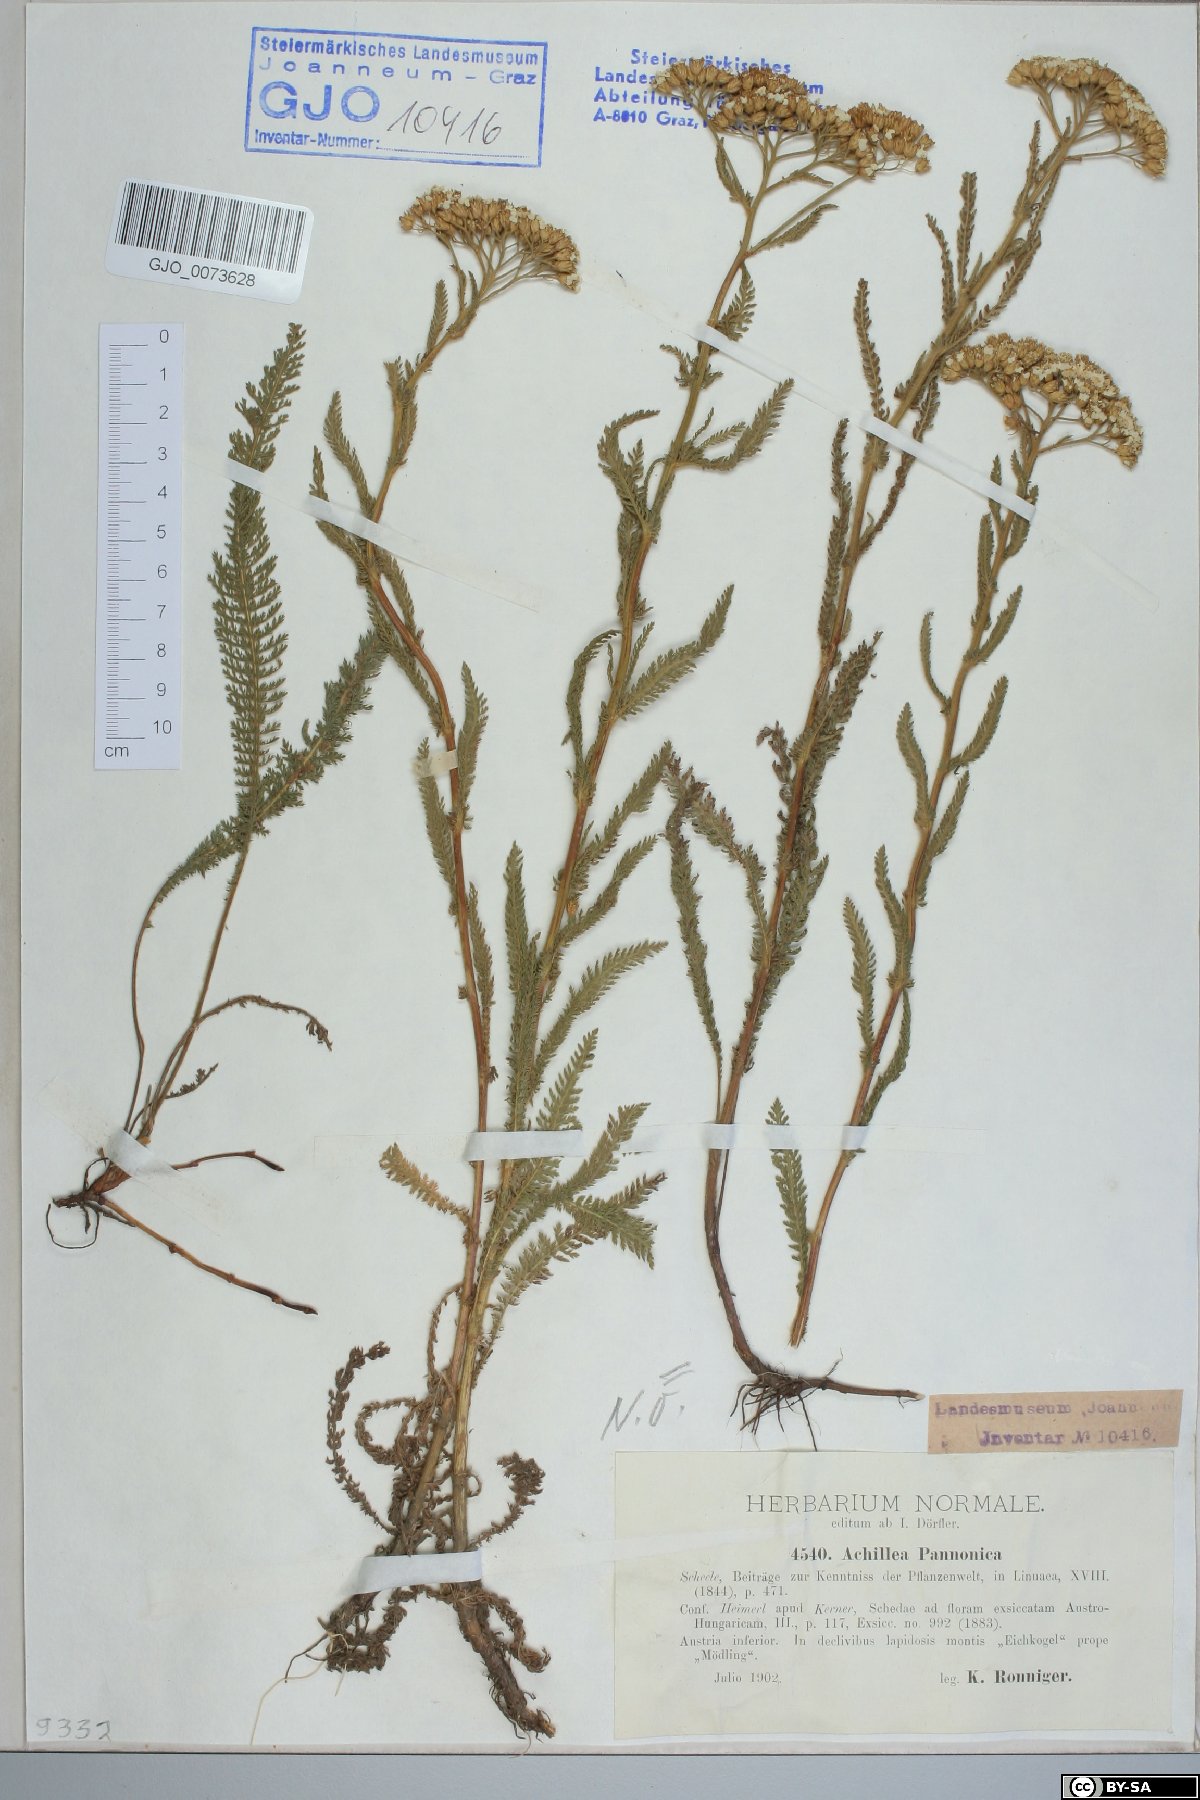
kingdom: Plantae
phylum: Tracheophyta
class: Magnoliopsida
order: Asterales
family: Asteraceae
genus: Achillea
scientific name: Achillea pannonica
